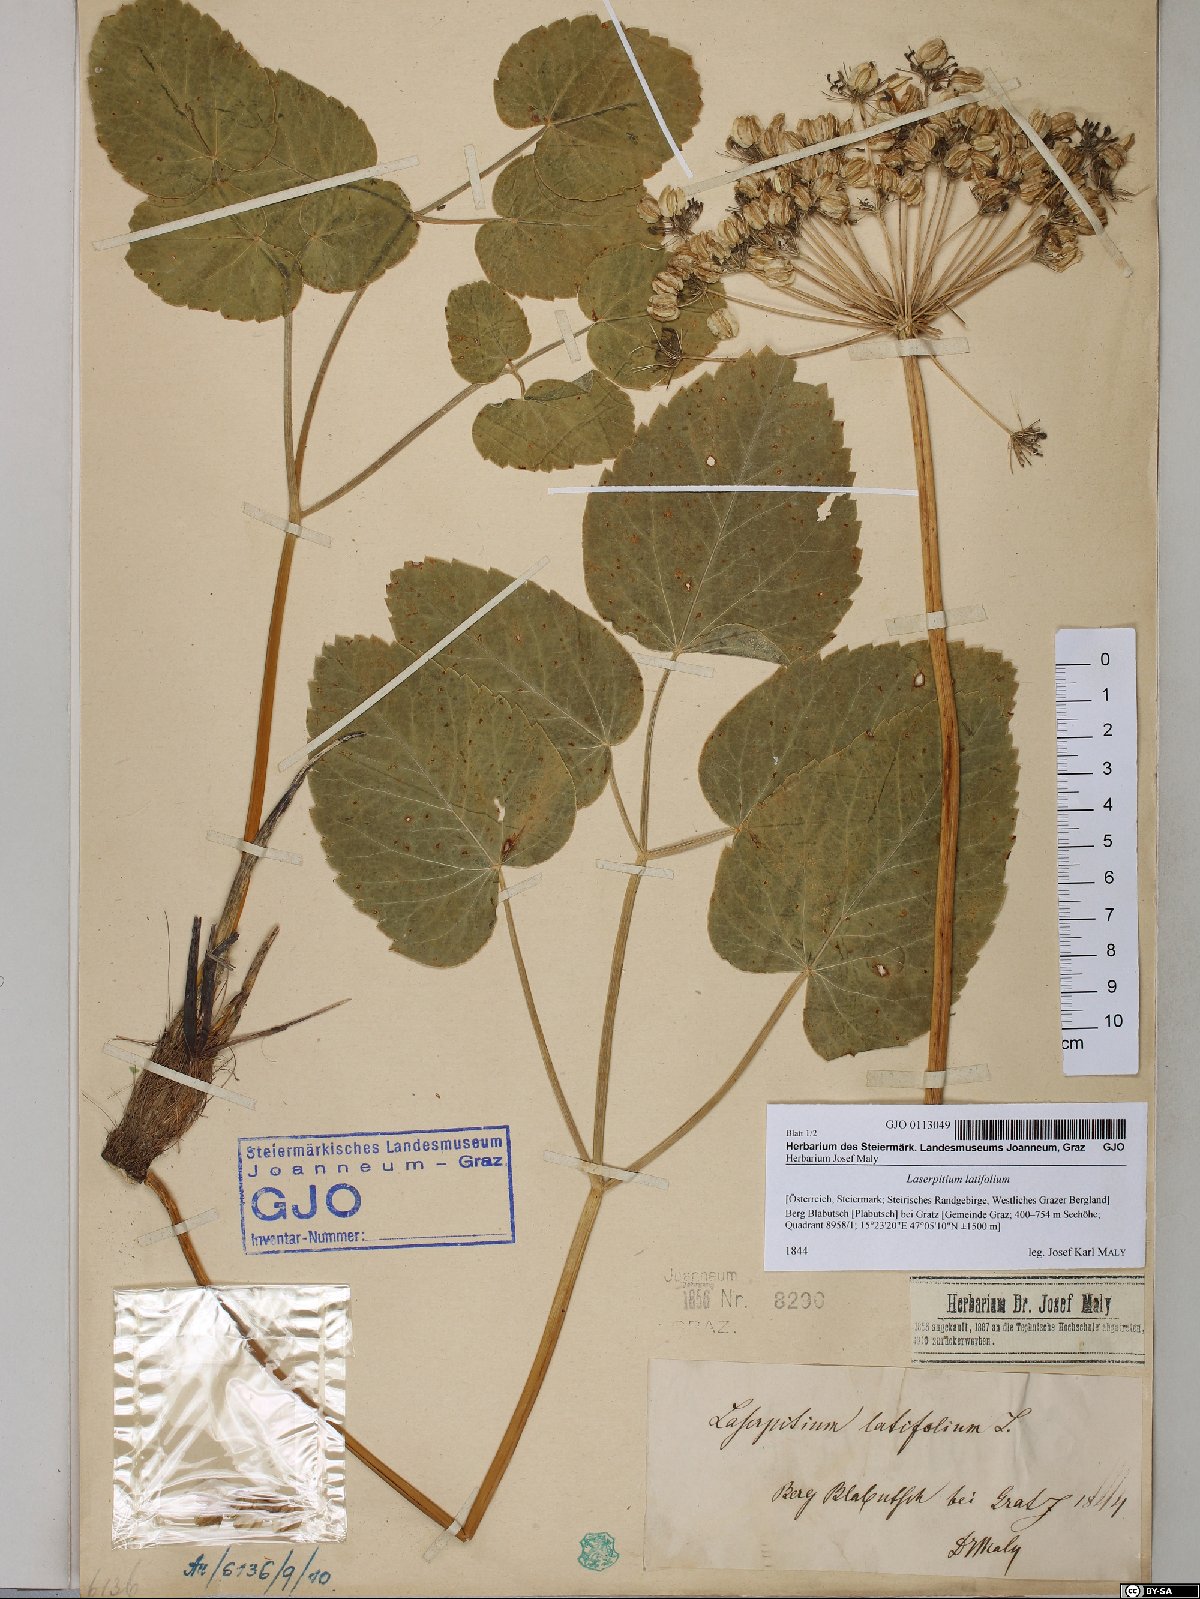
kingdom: Plantae
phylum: Tracheophyta
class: Magnoliopsida
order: Apiales
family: Apiaceae
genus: Laserpitium
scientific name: Laserpitium latifolium
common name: Broadleaf sermountain
